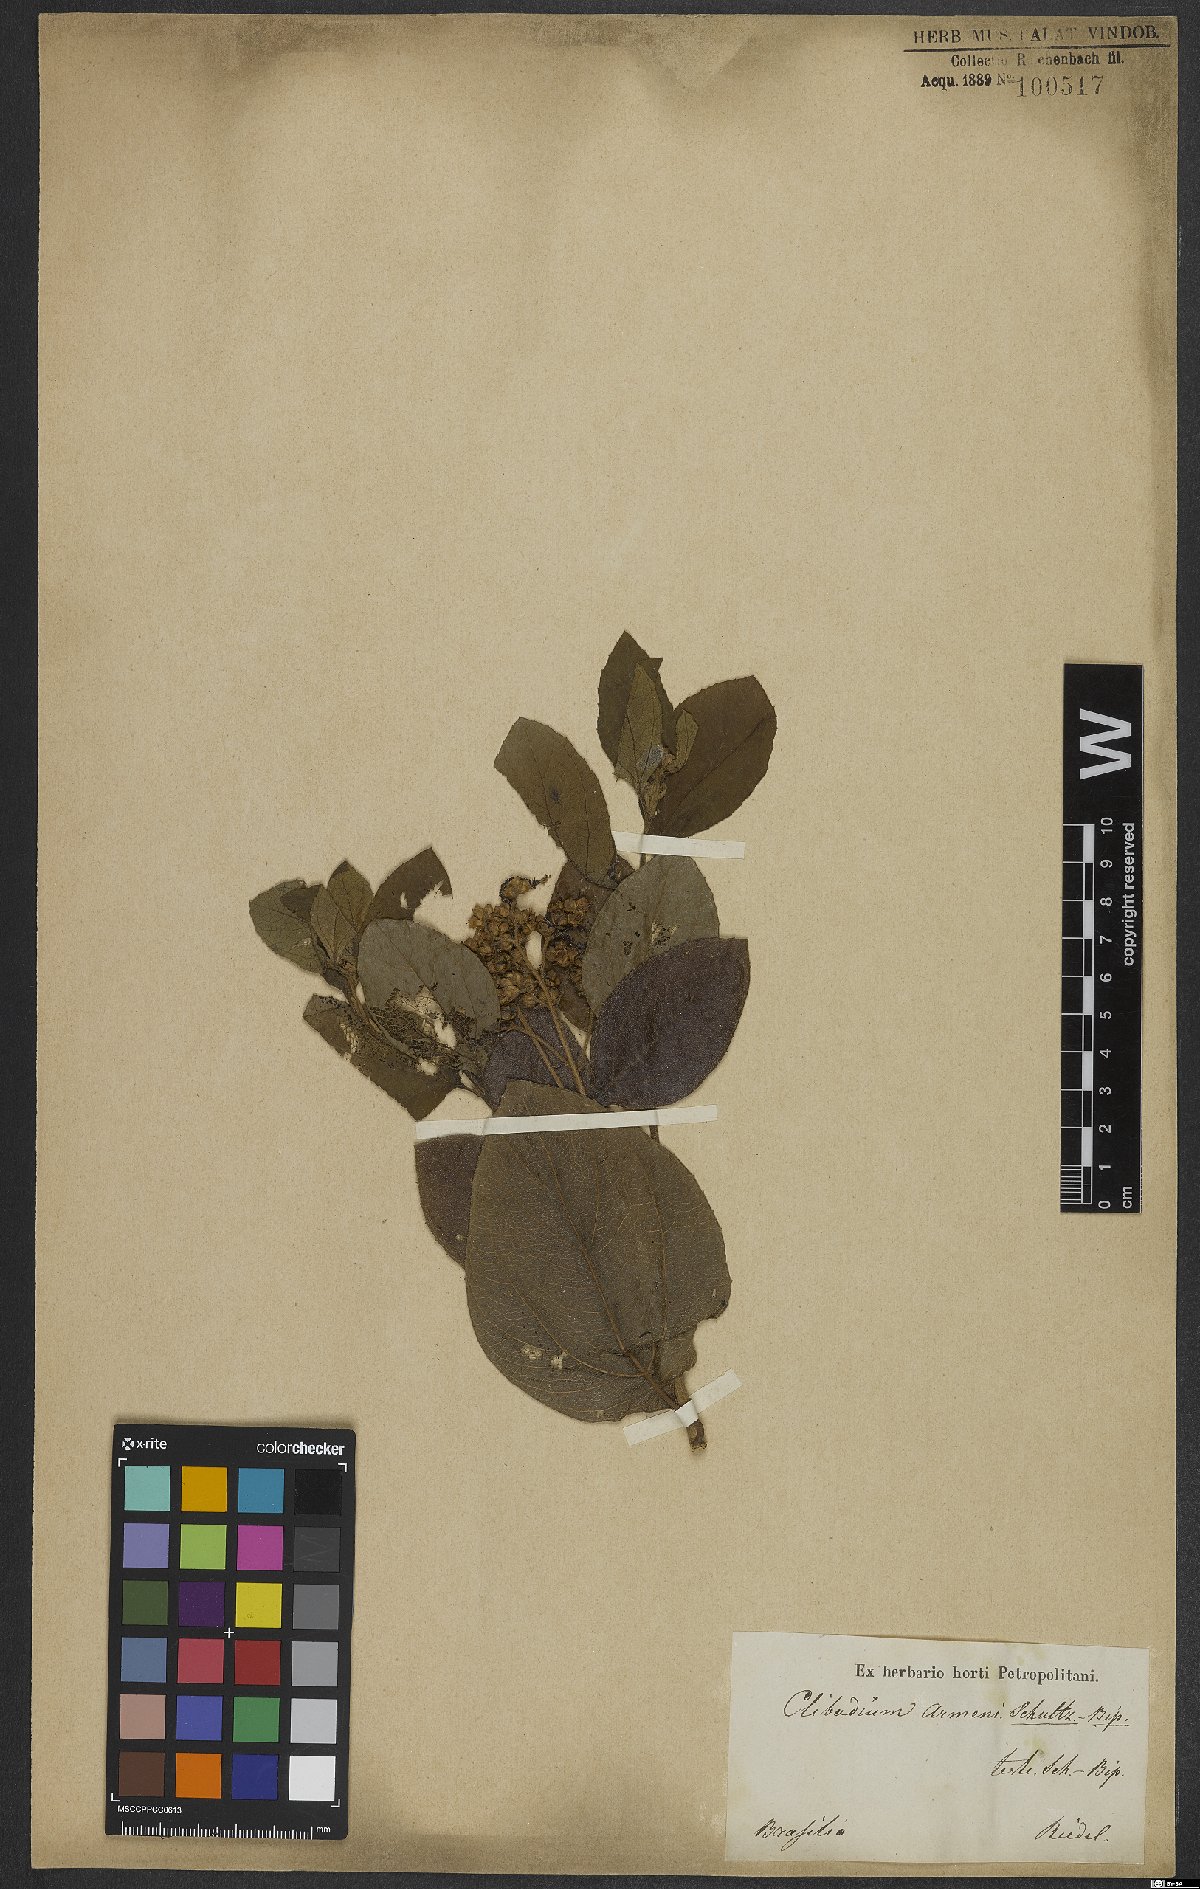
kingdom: Plantae
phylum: Tracheophyta
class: Magnoliopsida
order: Asterales
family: Asteraceae
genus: Clibadium
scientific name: Clibadium armanii
